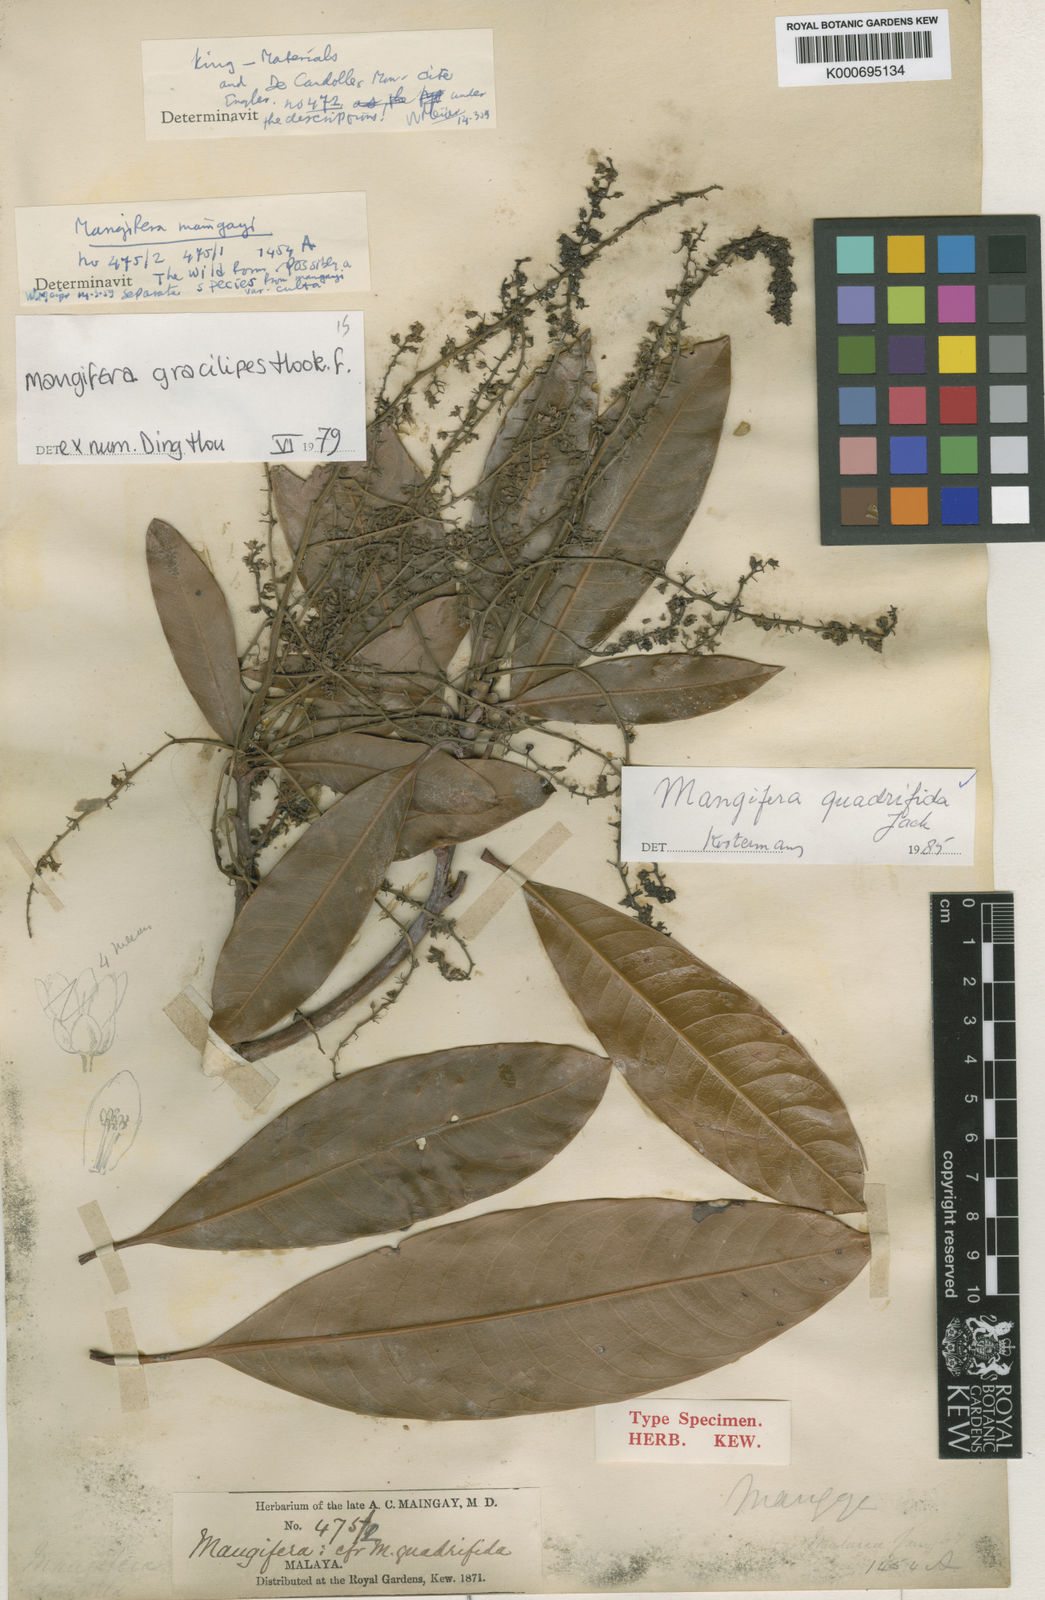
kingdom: Plantae
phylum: Tracheophyta
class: Magnoliopsida
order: Sapindales
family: Anacardiaceae
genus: Mangifera
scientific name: Mangifera quadrifida
